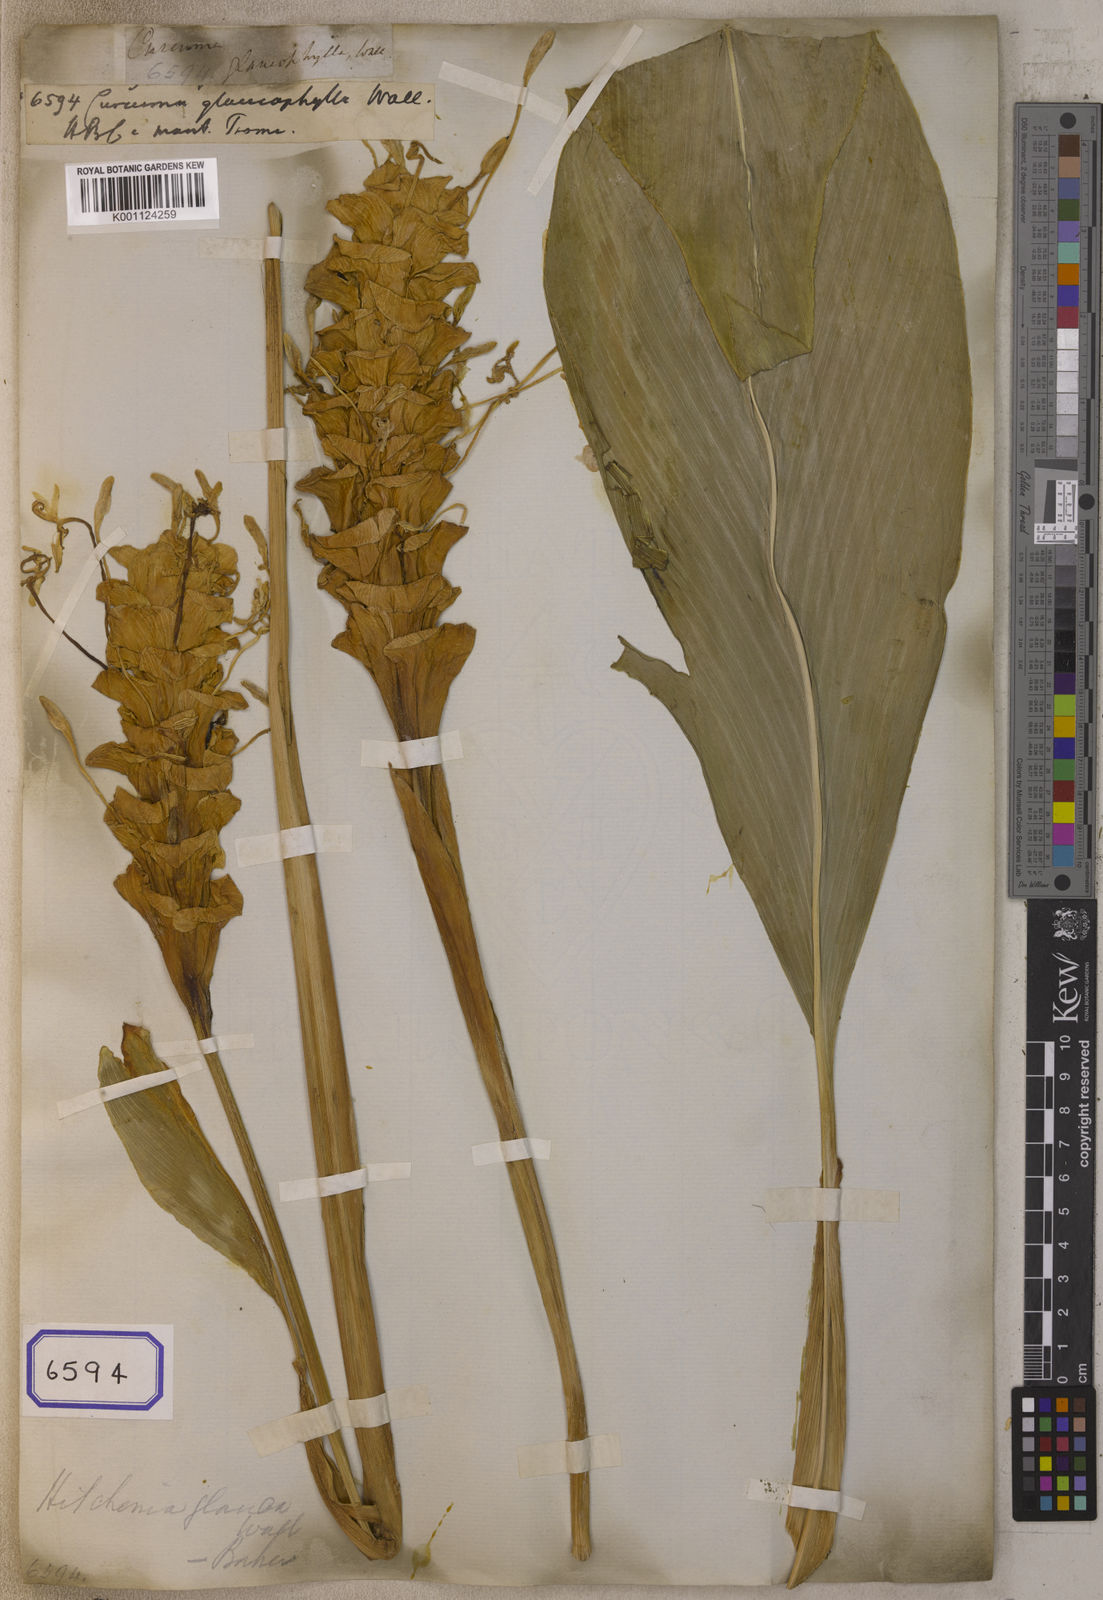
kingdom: Plantae
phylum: Tracheophyta
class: Liliopsida
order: Zingiberales
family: Zingiberaceae
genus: Curcuma
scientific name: Curcuma glauca
